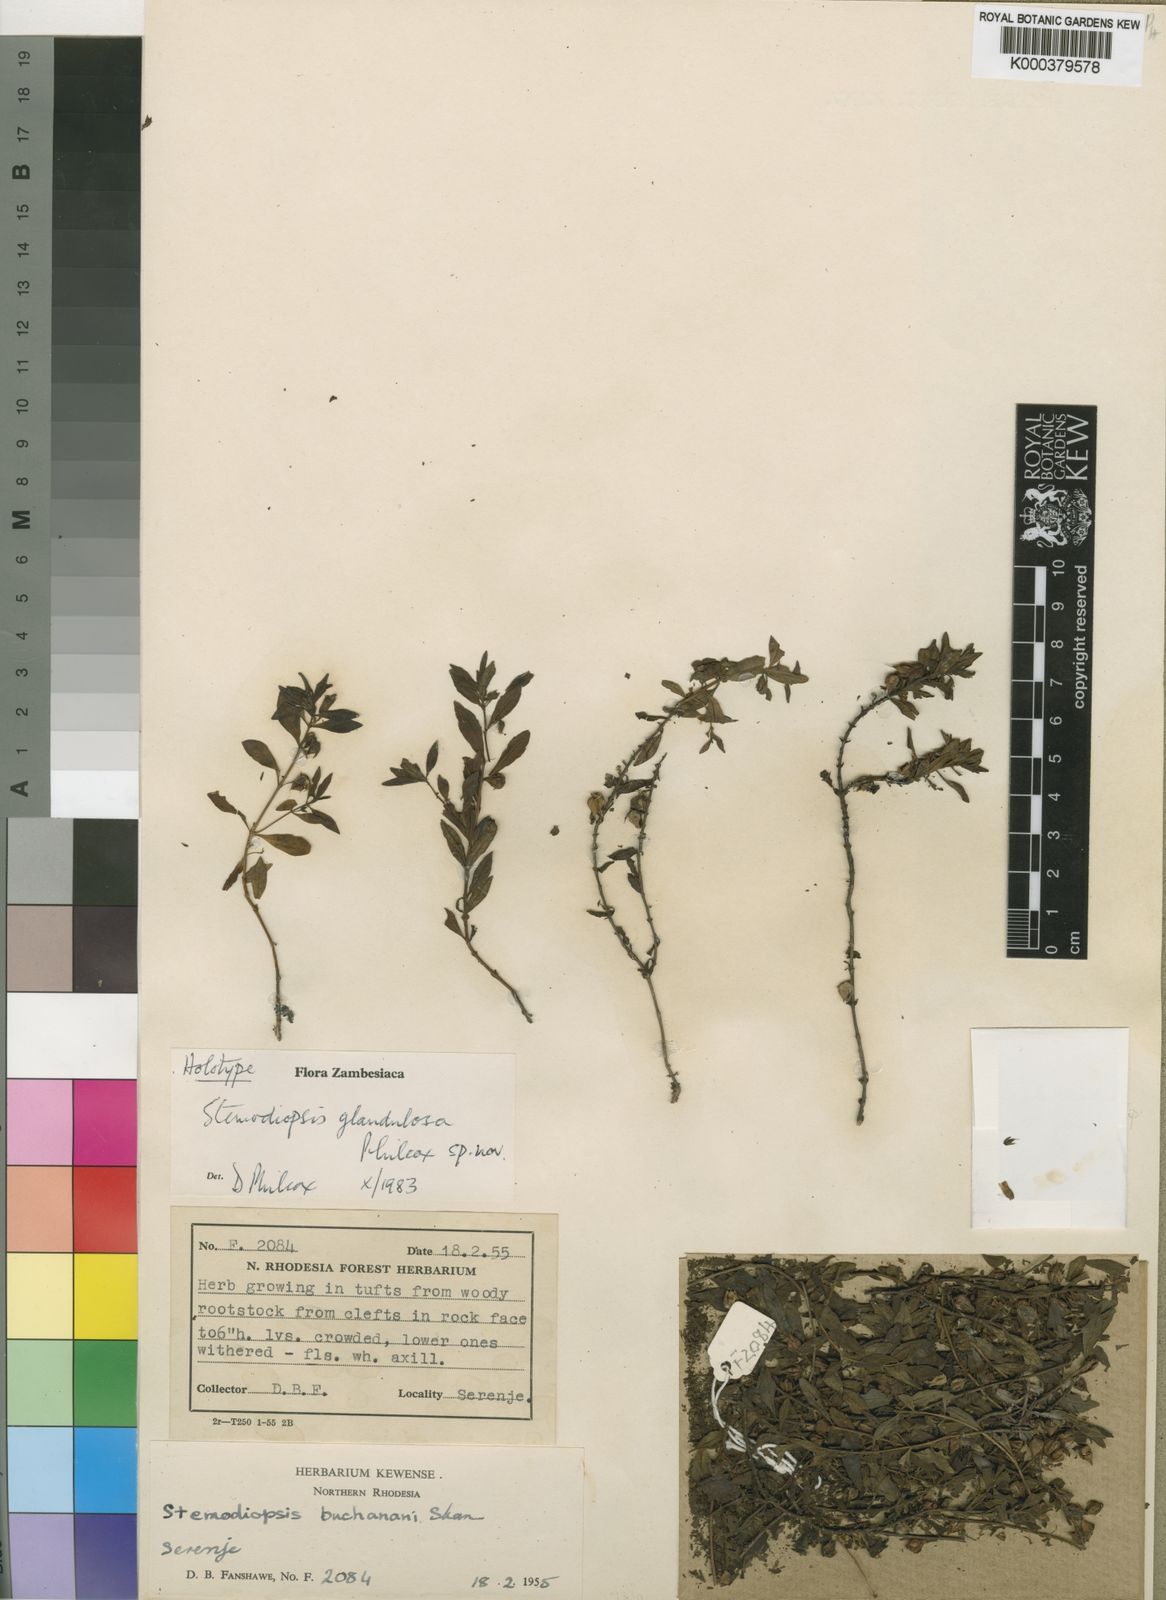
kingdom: Plantae
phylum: Tracheophyta
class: Magnoliopsida
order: Lamiales
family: Linderniaceae
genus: Stemodiopsis
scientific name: Stemodiopsis glandulosa
